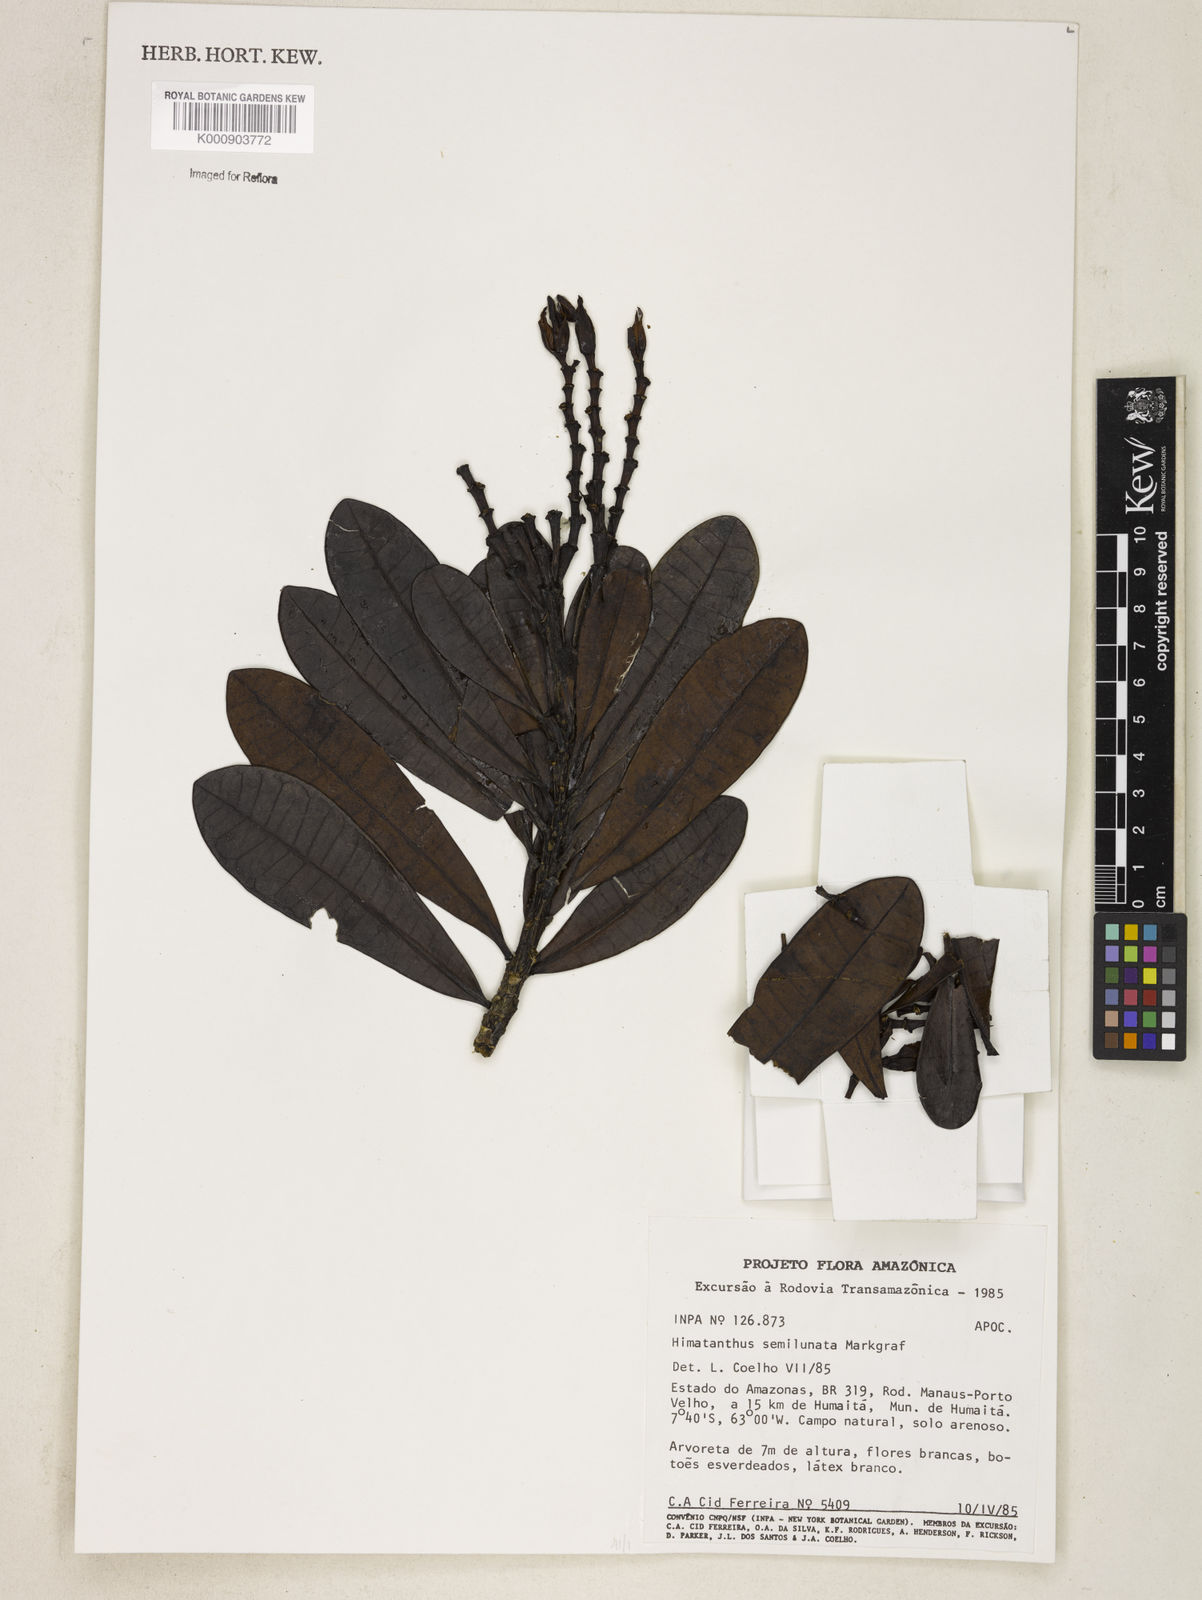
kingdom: Plantae
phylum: Tracheophyta
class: Magnoliopsida
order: Gentianales
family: Apocynaceae
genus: Himatanthus
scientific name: Himatanthus semilunatus
